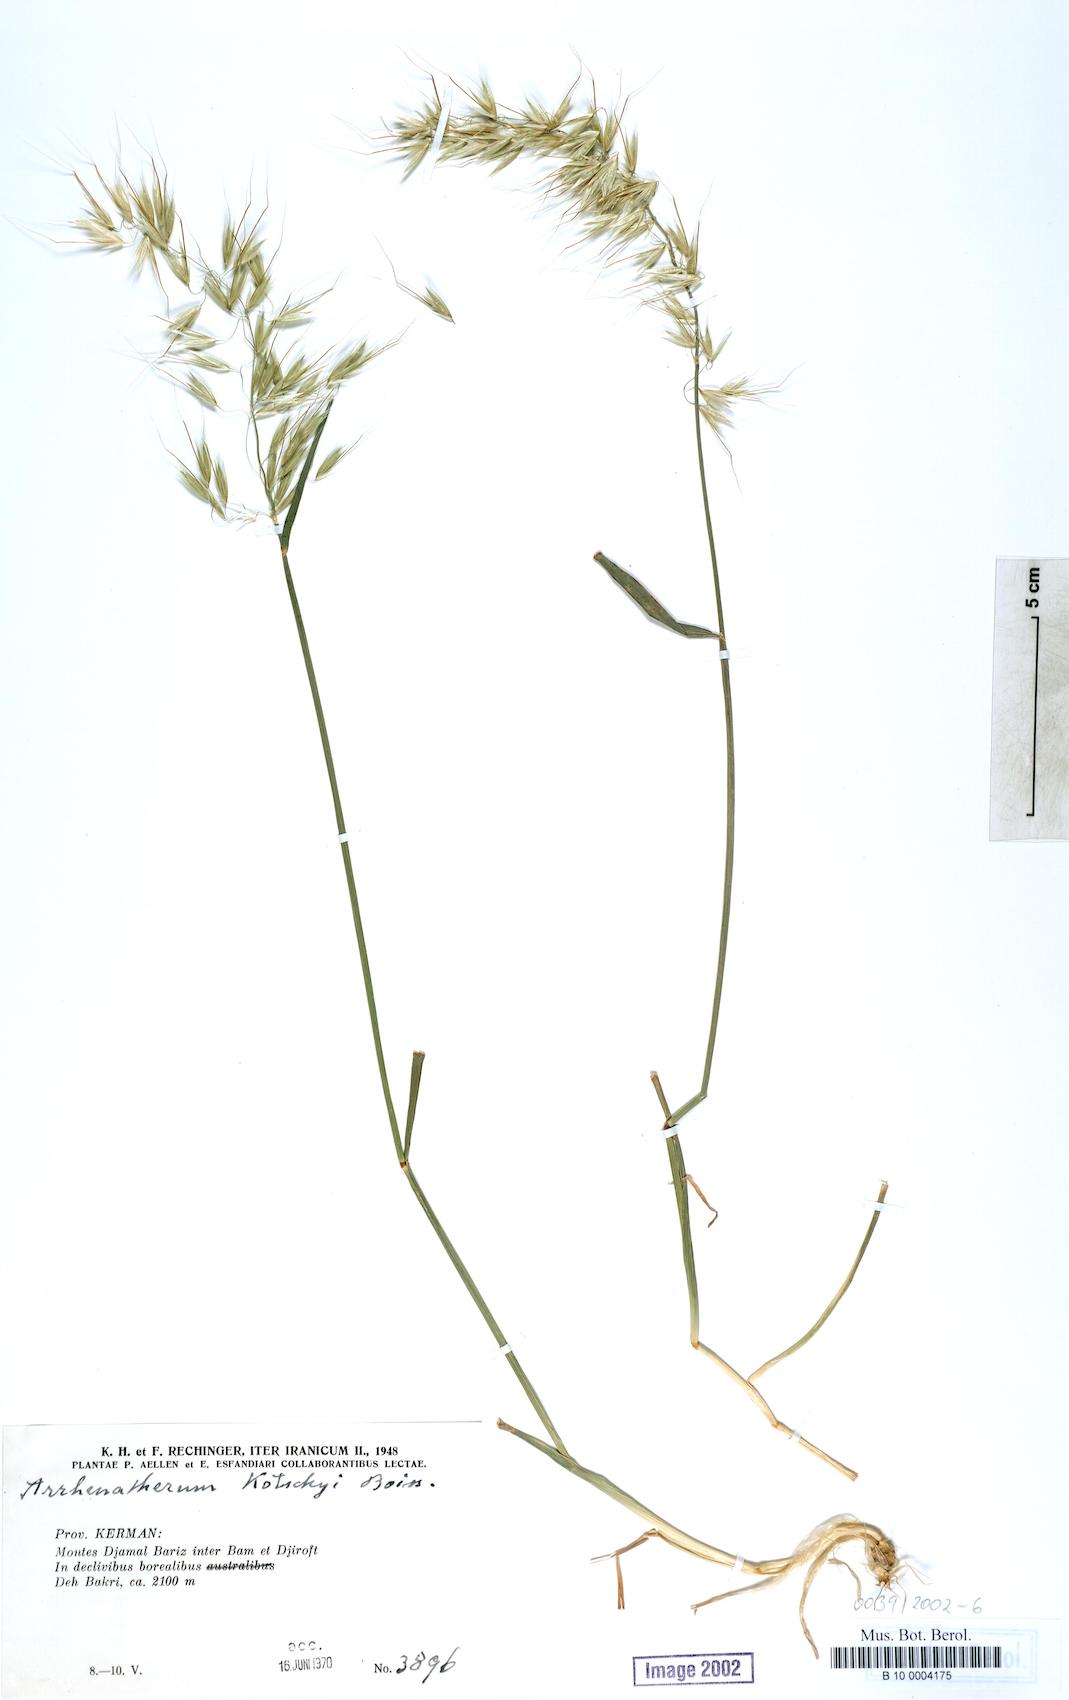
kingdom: Plantae
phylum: Tracheophyta
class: Liliopsida
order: Poales
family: Poaceae
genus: Arrhenatherum
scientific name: Arrhenatherum kotschyi
